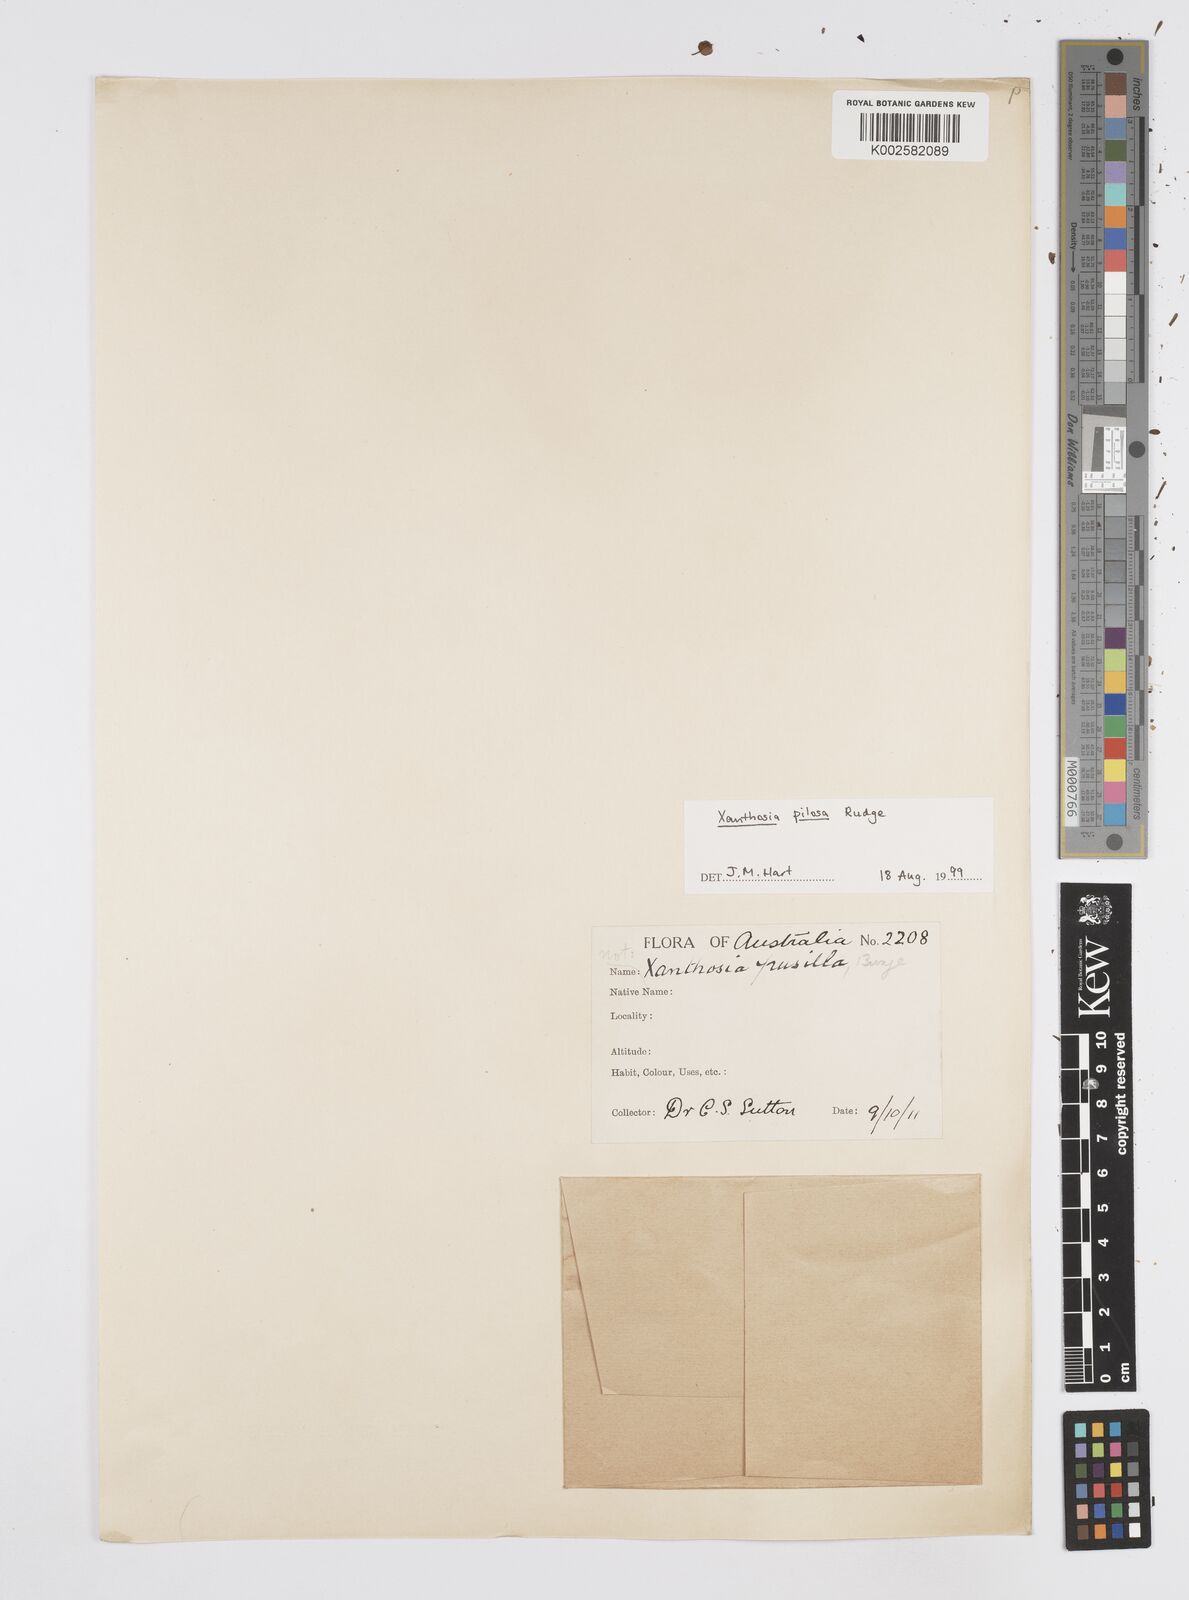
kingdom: Plantae
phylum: Tracheophyta
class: Magnoliopsida
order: Apiales
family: Apiaceae
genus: Xanthosia
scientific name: Xanthosia pilosa
